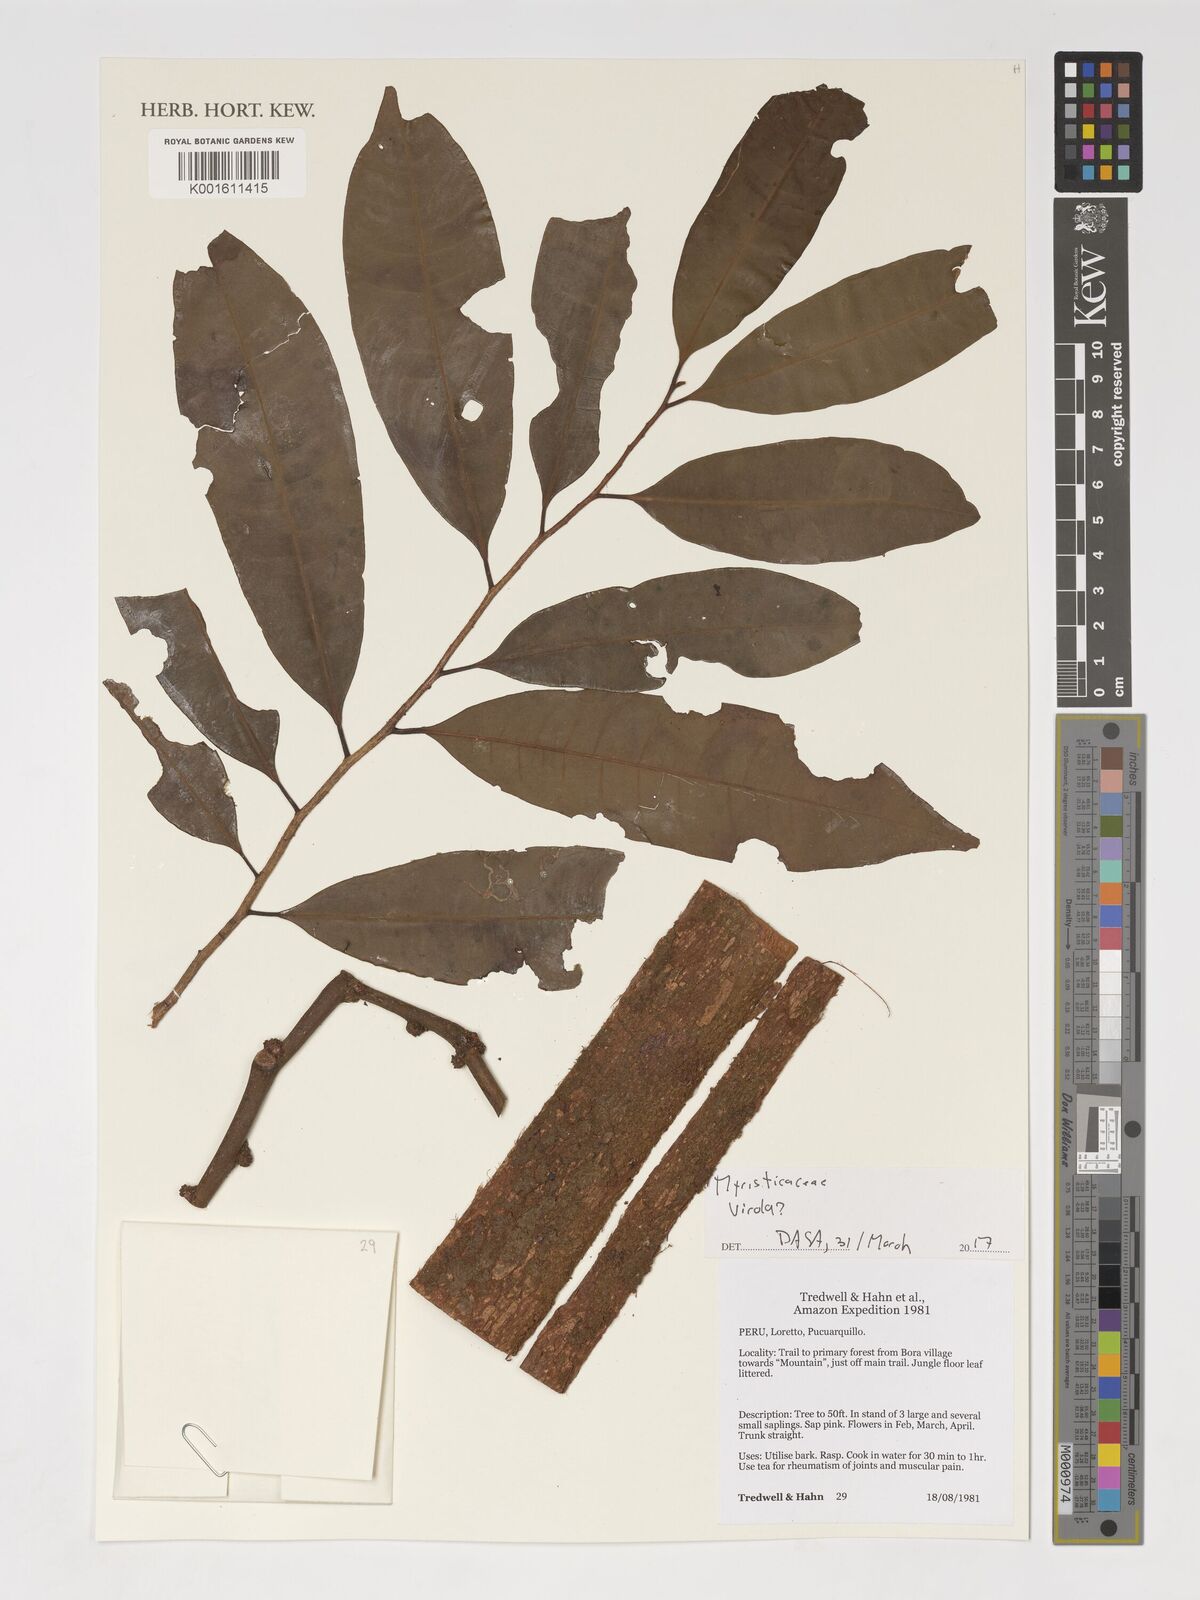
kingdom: Plantae
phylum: Tracheophyta
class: Magnoliopsida
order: Magnoliales
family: Myristicaceae
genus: Virola
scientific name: Virola
